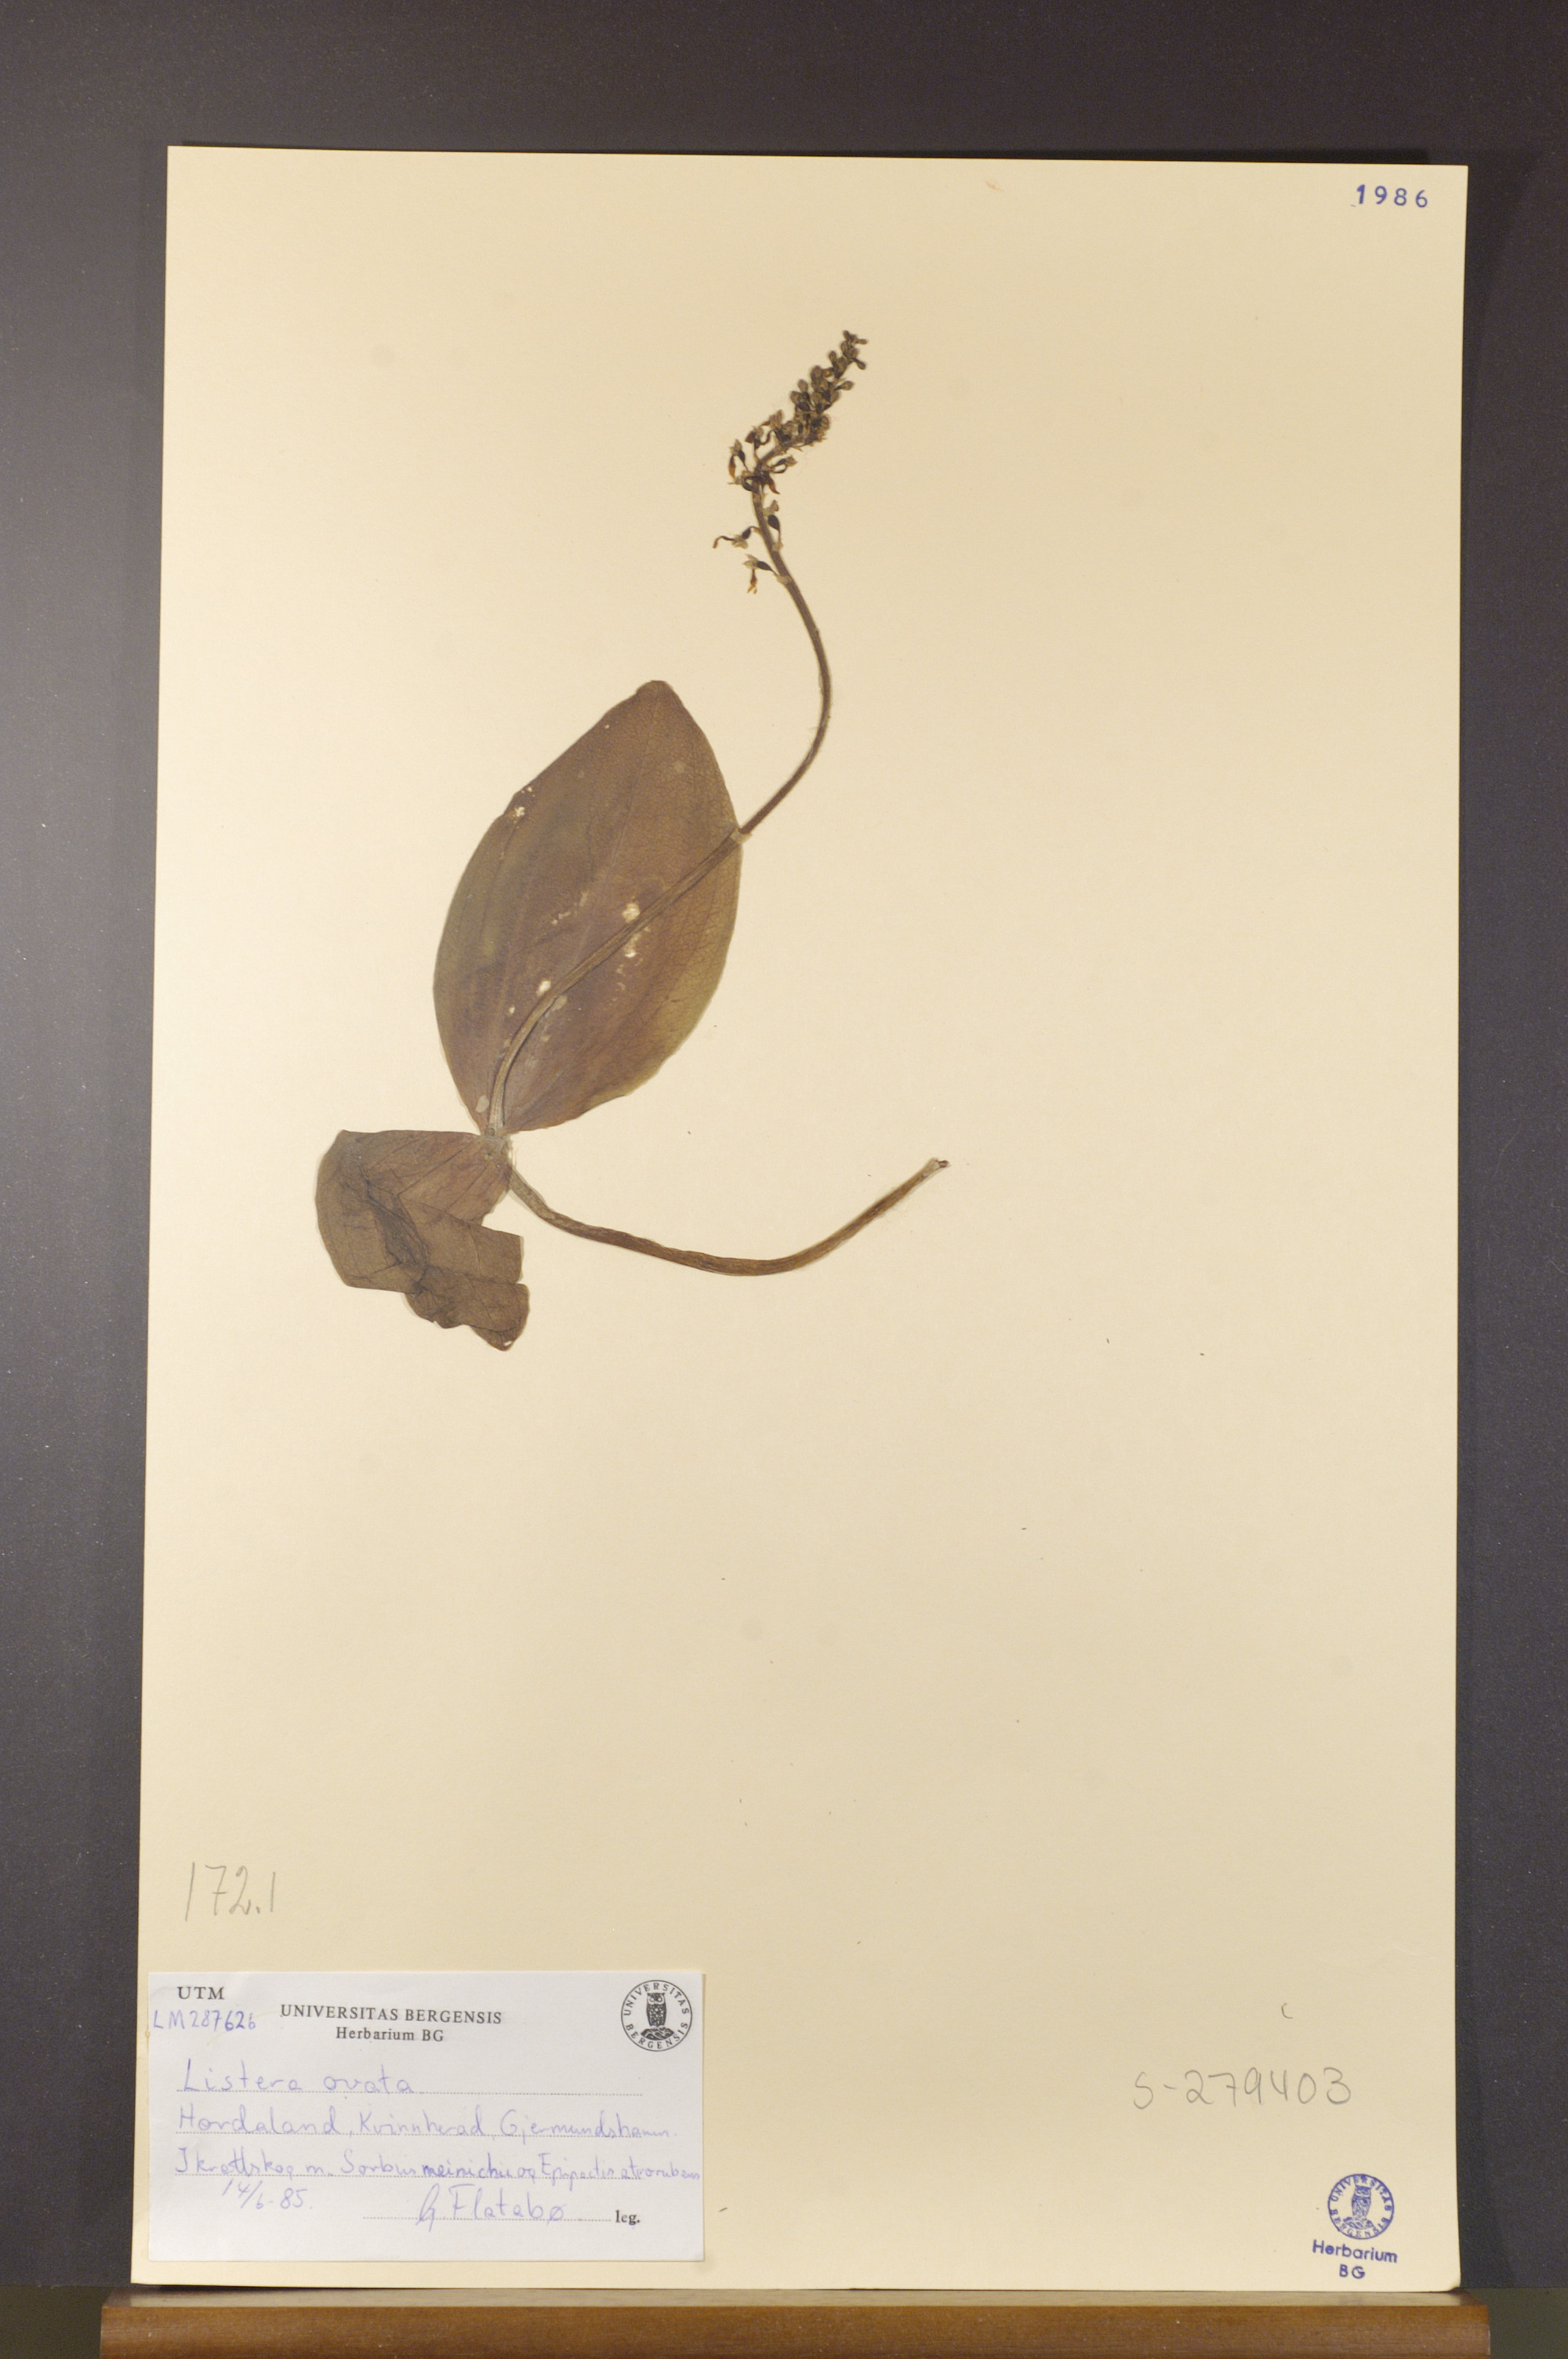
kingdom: Plantae
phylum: Tracheophyta
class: Liliopsida
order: Asparagales
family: Orchidaceae
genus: Neottia
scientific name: Neottia ovata
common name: Common twayblade
